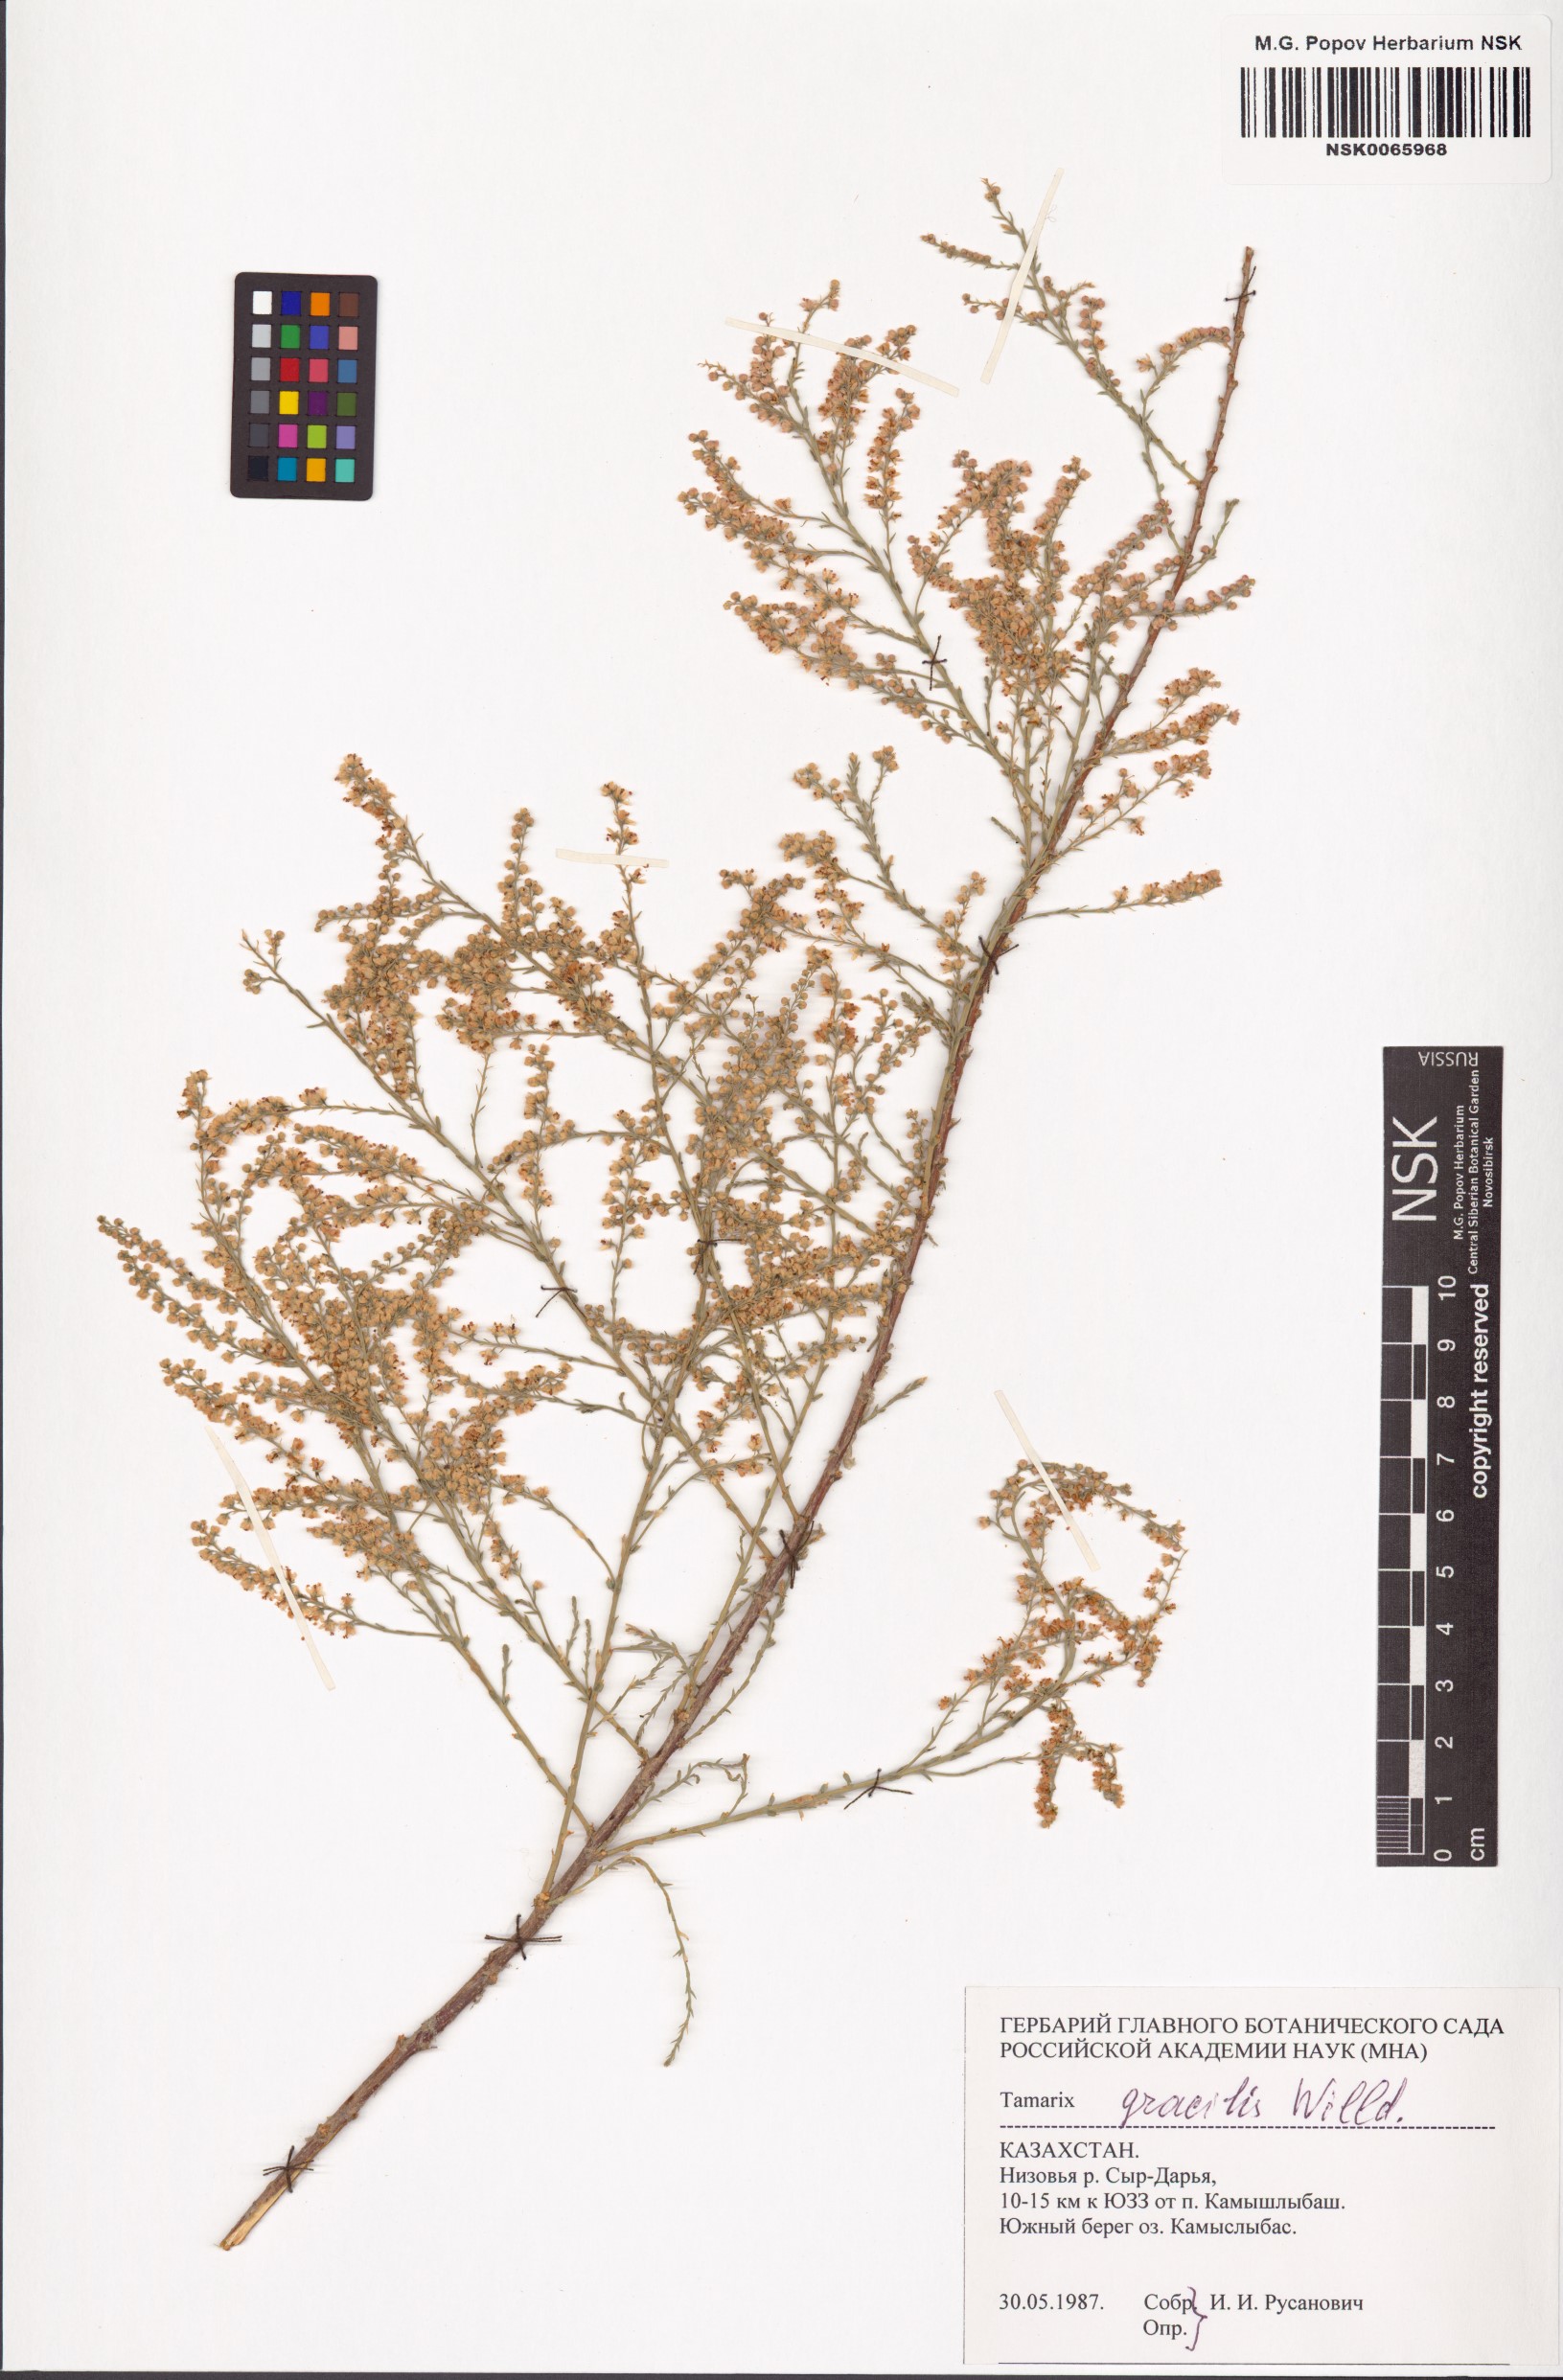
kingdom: Plantae
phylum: Tracheophyta
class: Magnoliopsida
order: Caryophyllales
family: Tamaricaceae
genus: Tamarix
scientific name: Tamarix gracilis
